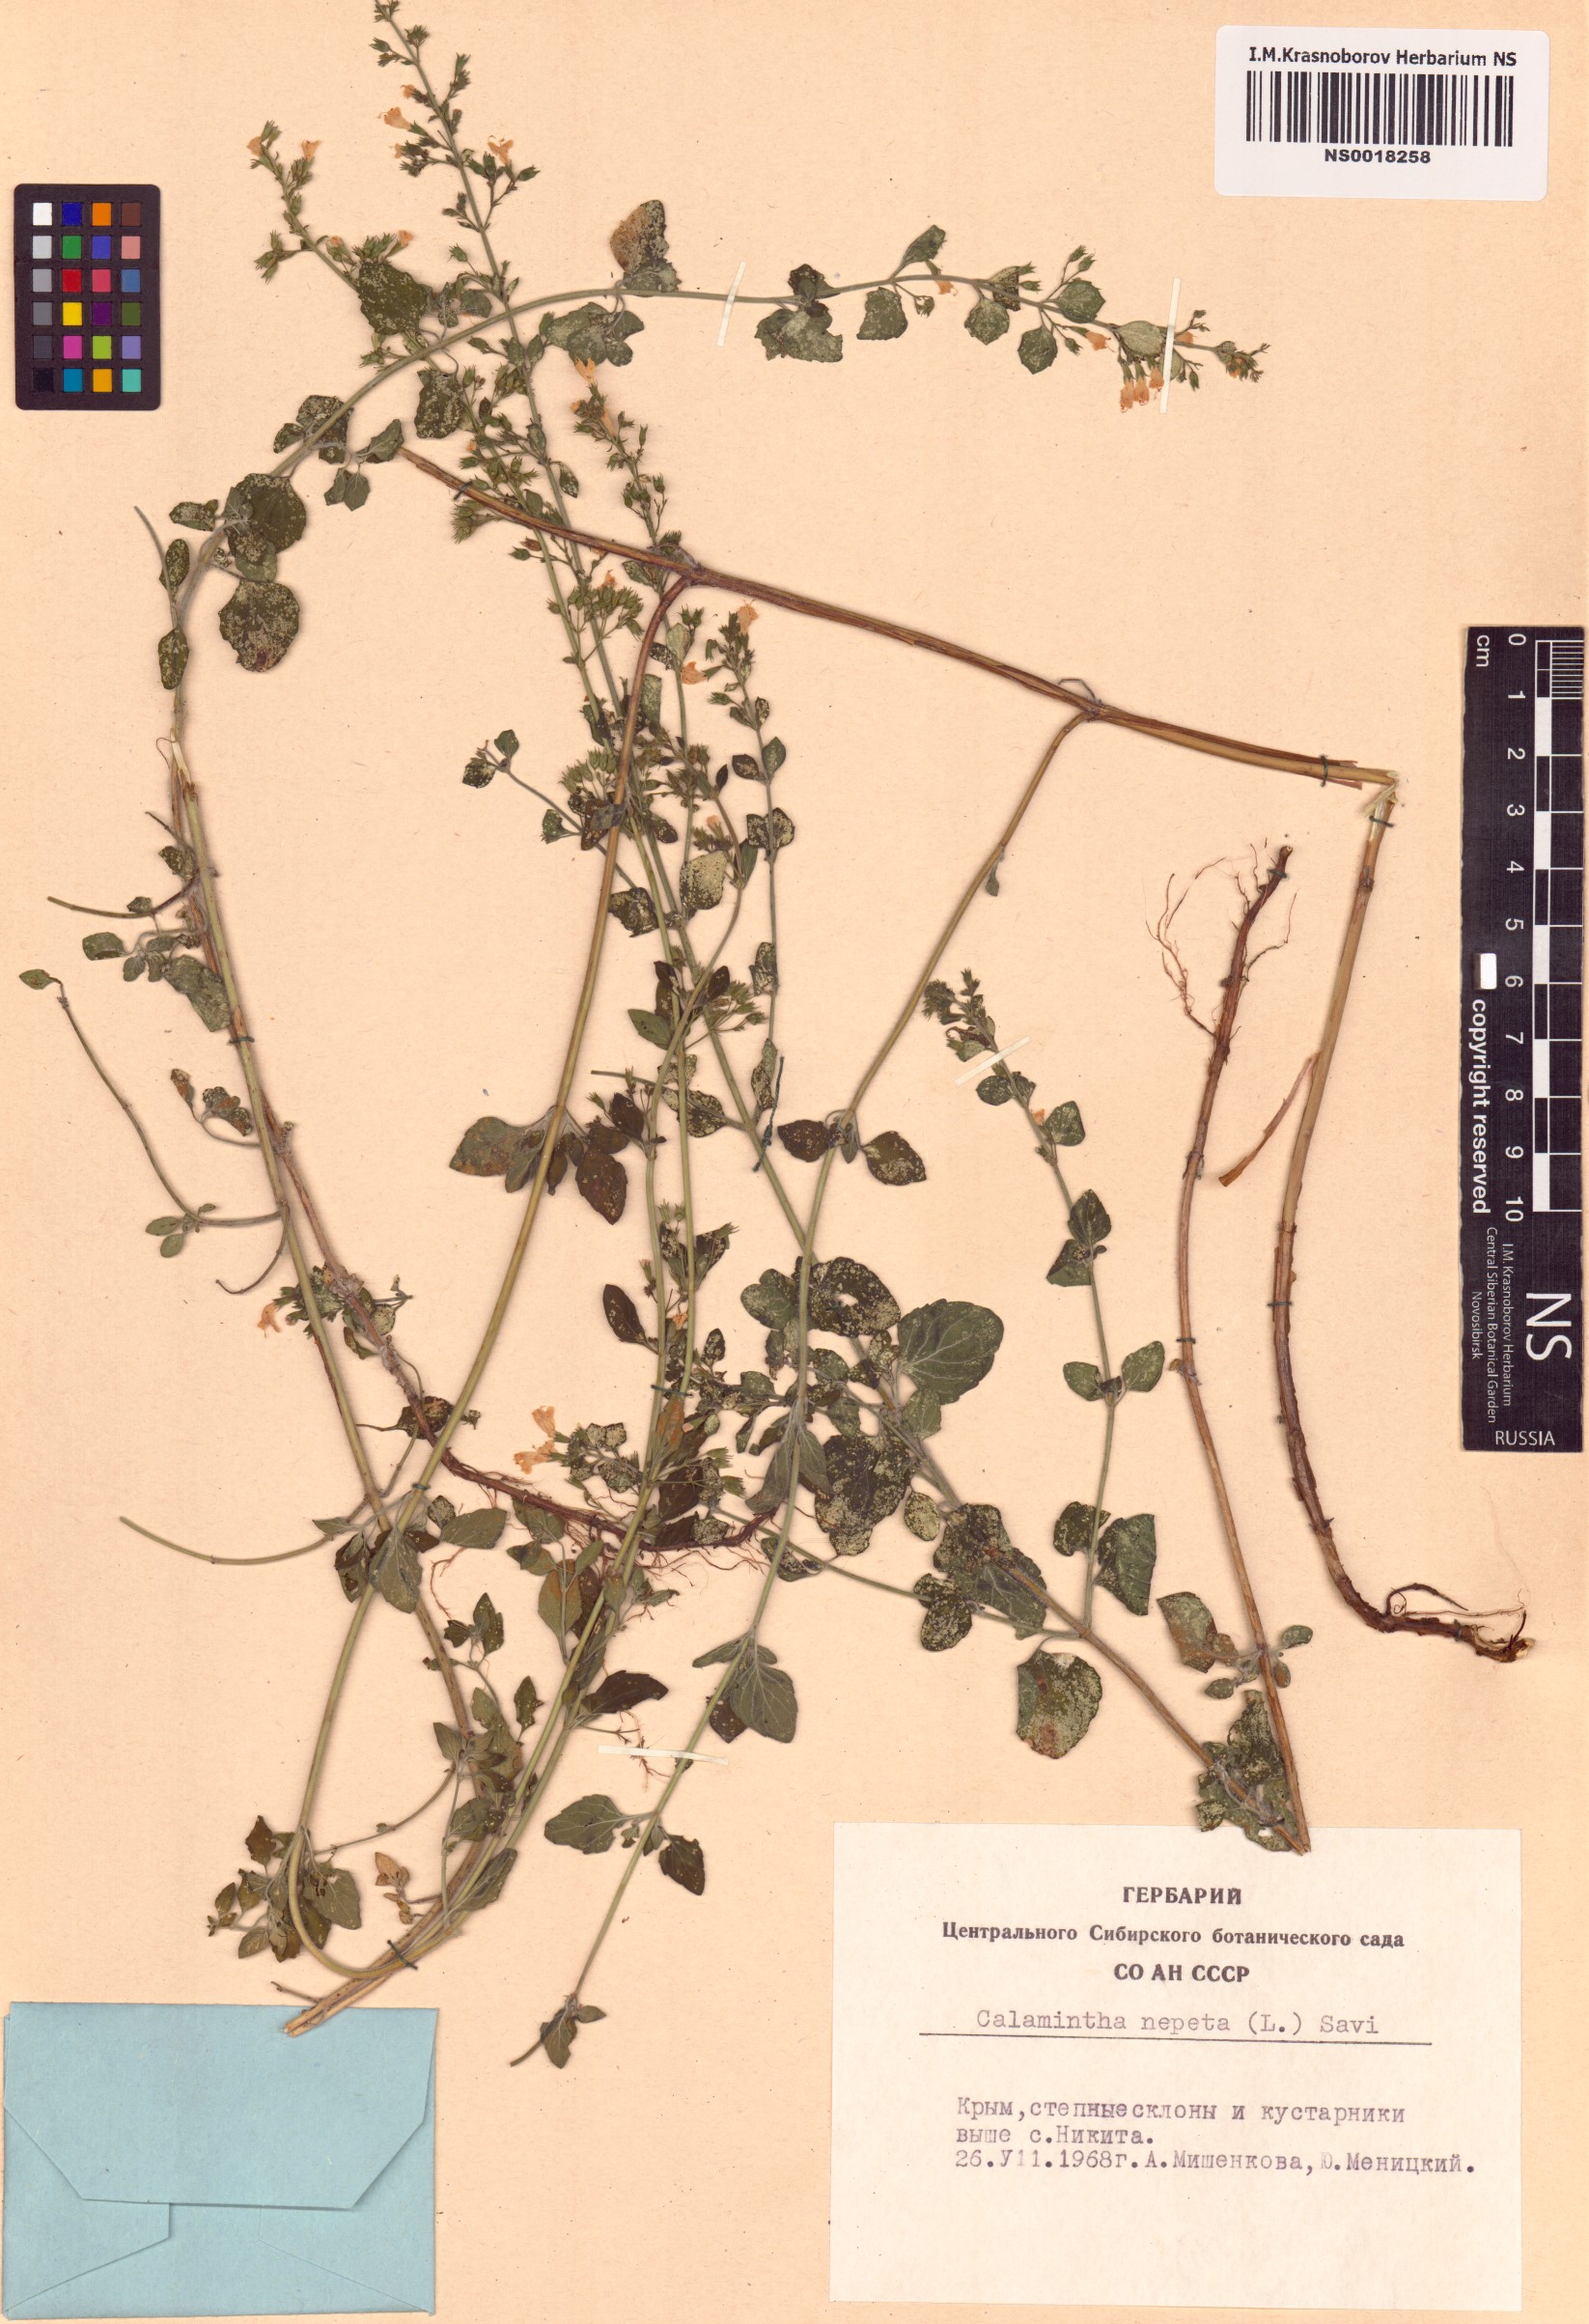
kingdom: Plantae
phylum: Tracheophyta
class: Magnoliopsida
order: Lamiales
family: Lamiaceae
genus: Clinopodium
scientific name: Clinopodium nepeta
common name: Lesser calamint
